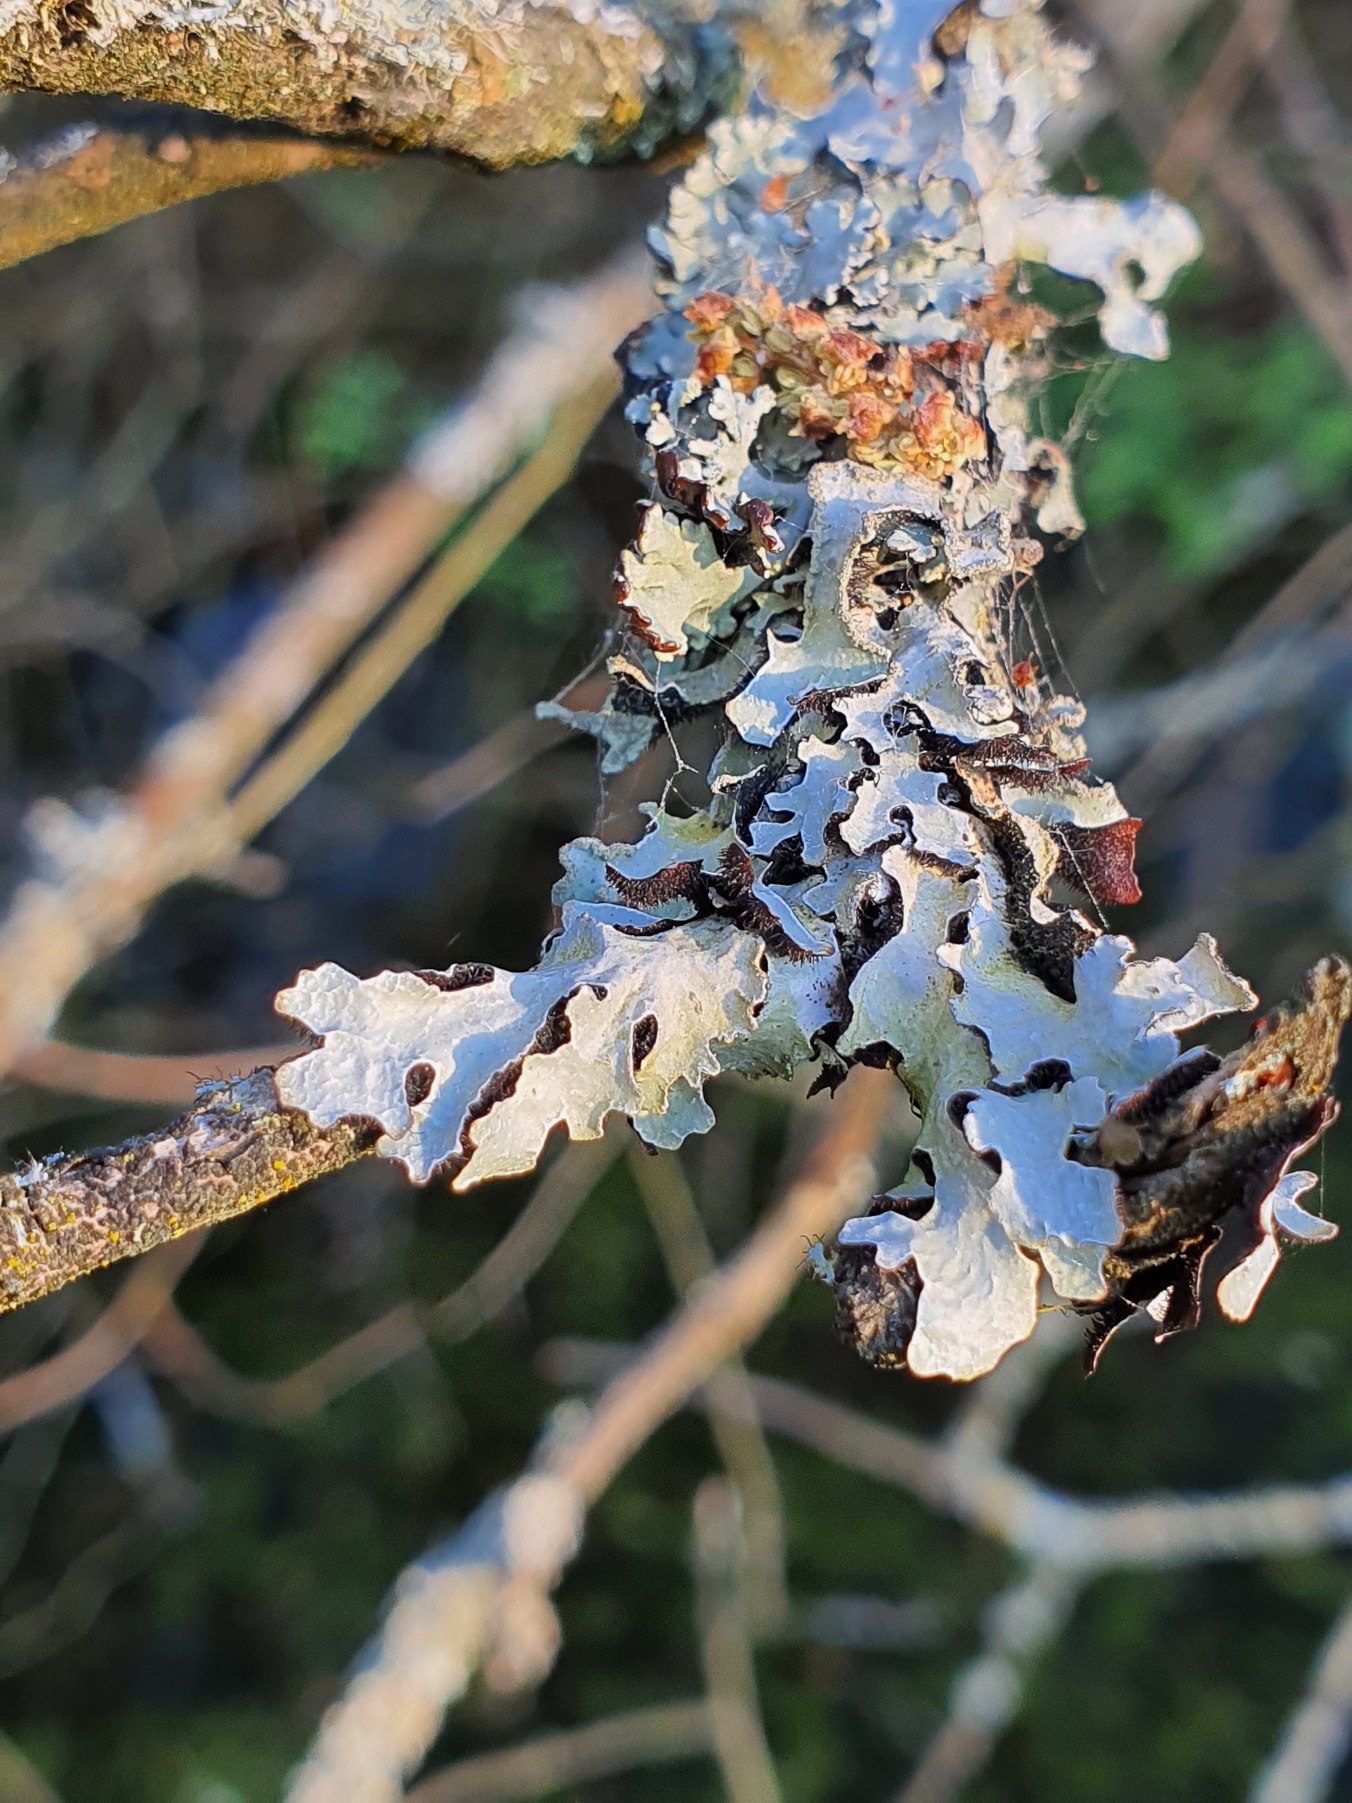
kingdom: Fungi
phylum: Ascomycota
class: Lecanoromycetes
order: Lecanorales
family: Parmeliaceae
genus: Parmelia
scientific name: Parmelia sulcata
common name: Rynket skållav
